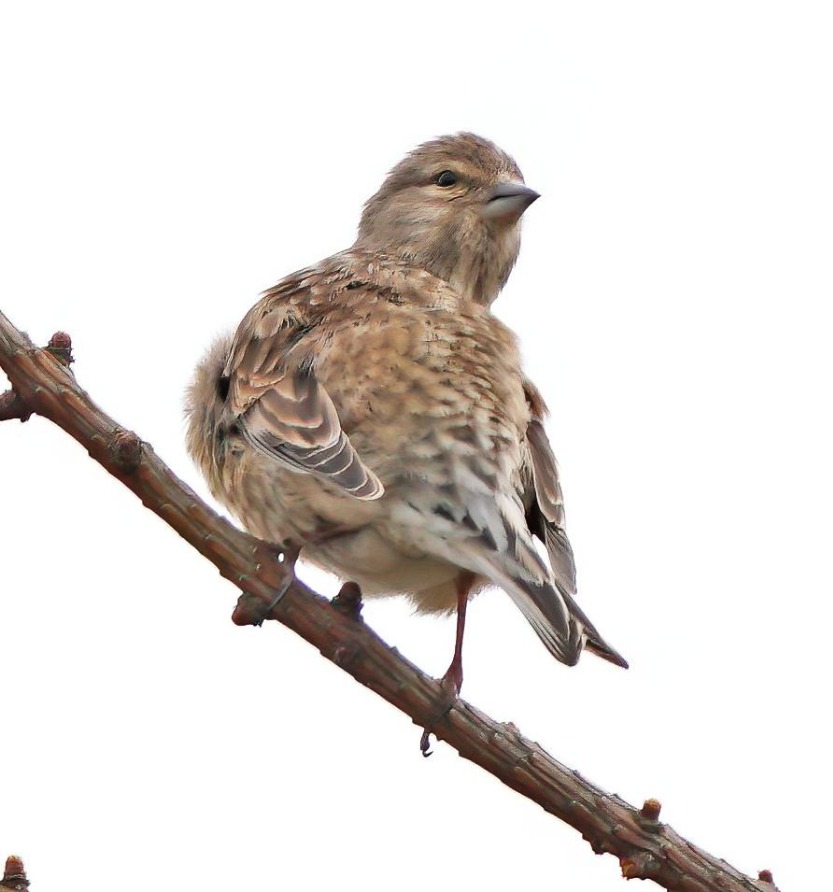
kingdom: Animalia
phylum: Chordata
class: Aves
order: Passeriformes
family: Fringillidae
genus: Linaria
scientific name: Linaria cannabina
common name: Tornirisk
